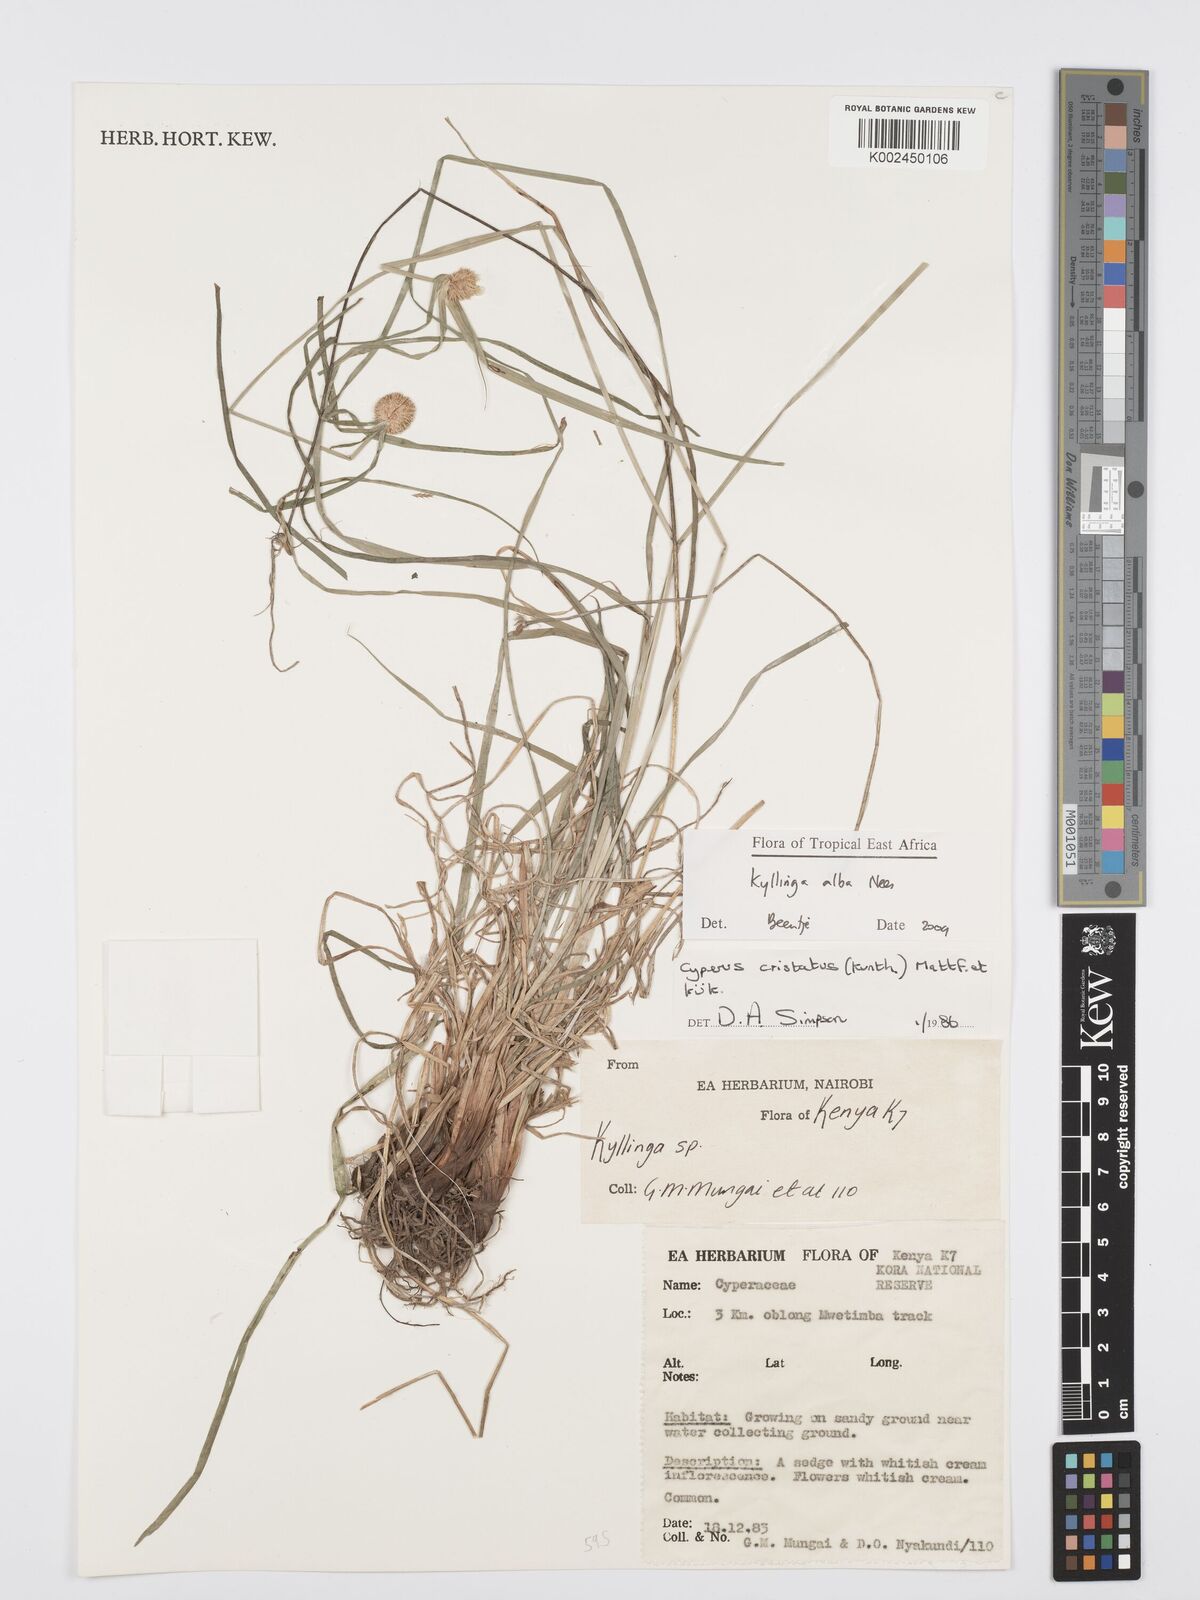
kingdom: Plantae
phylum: Tracheophyta
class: Liliopsida
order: Poales
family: Cyperaceae
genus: Cyperus
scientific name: Cyperus
